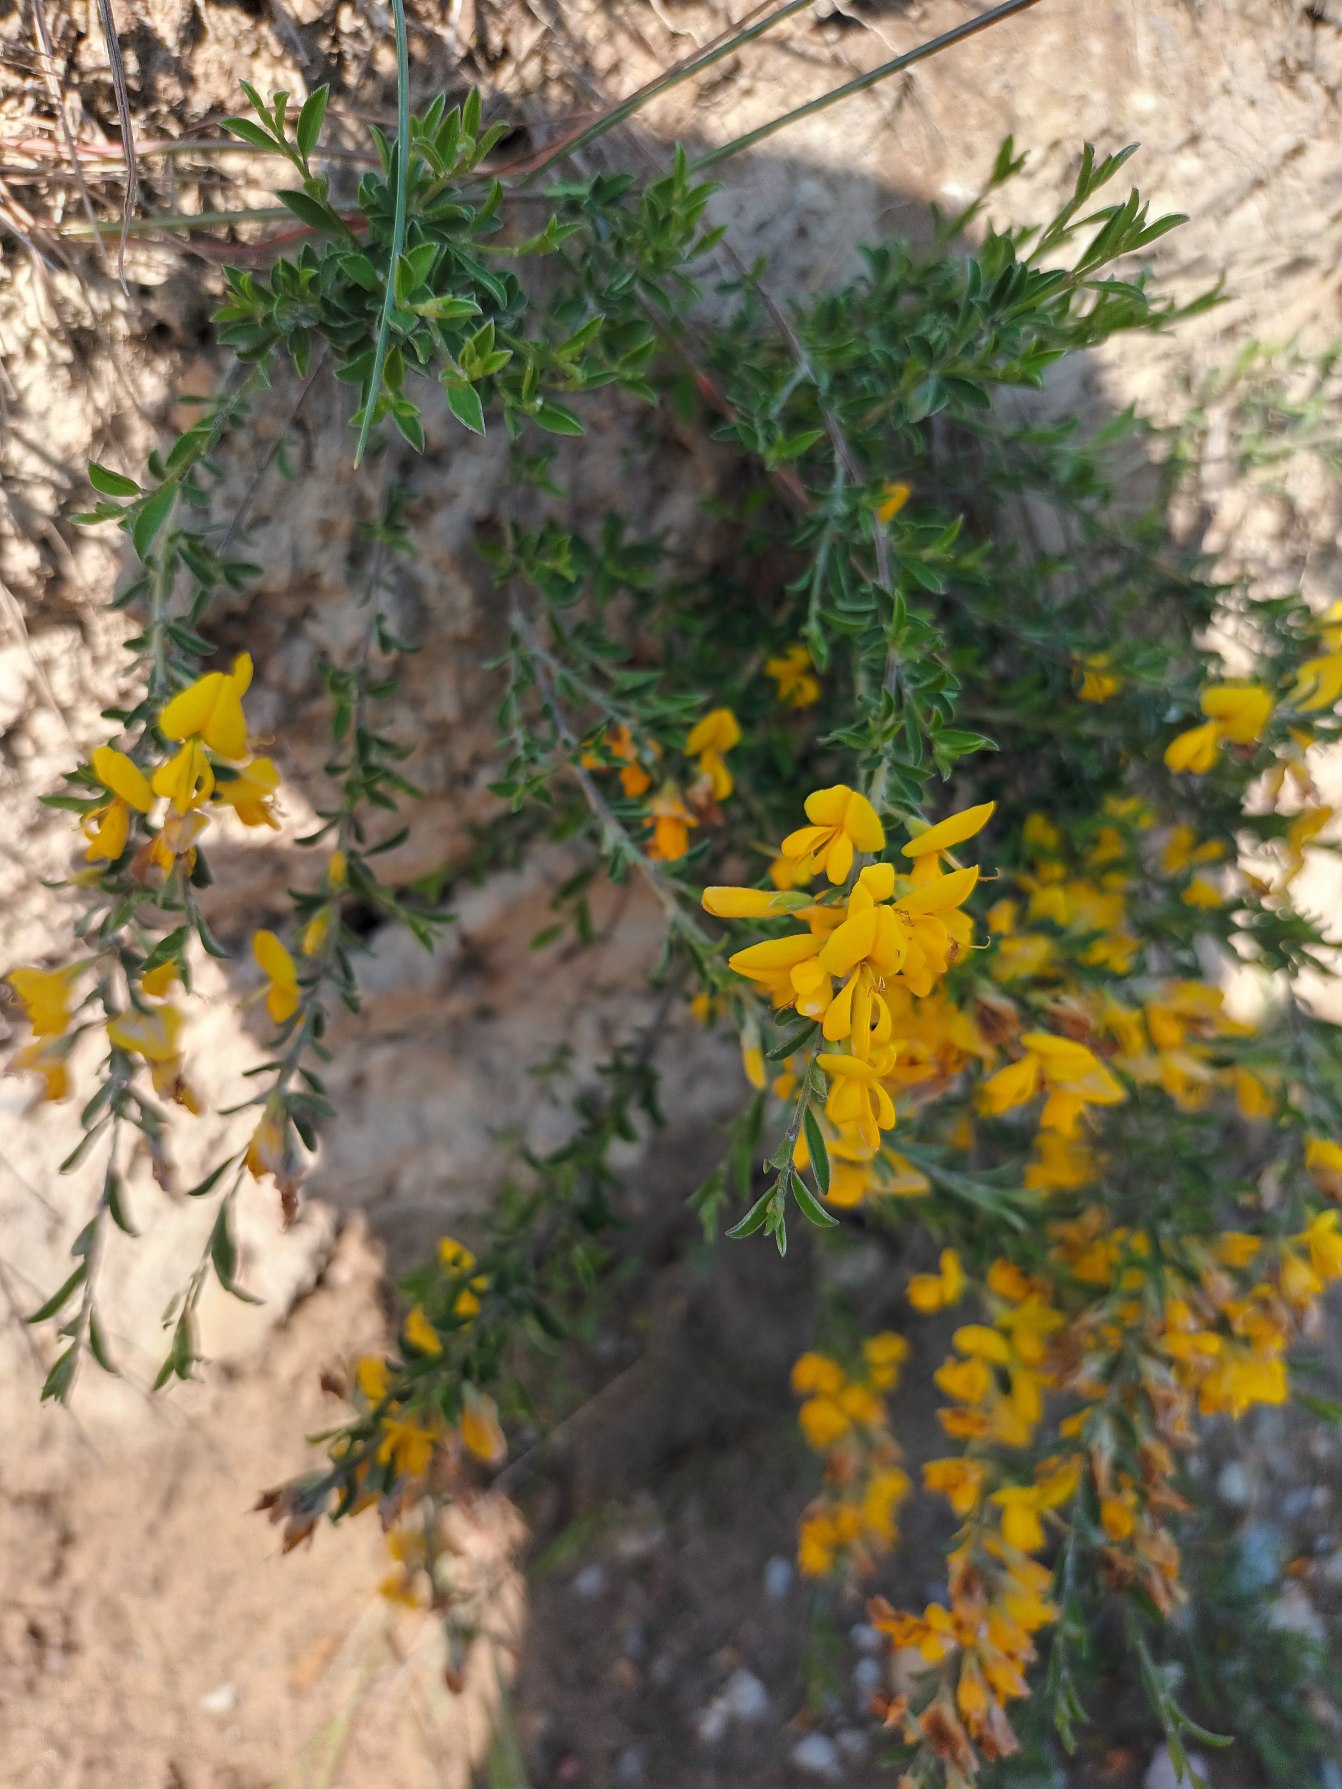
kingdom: Plantae
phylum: Tracheophyta
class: Magnoliopsida
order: Fabales
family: Fabaceae
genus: Genista
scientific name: Genista pilosa
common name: Håret visse
